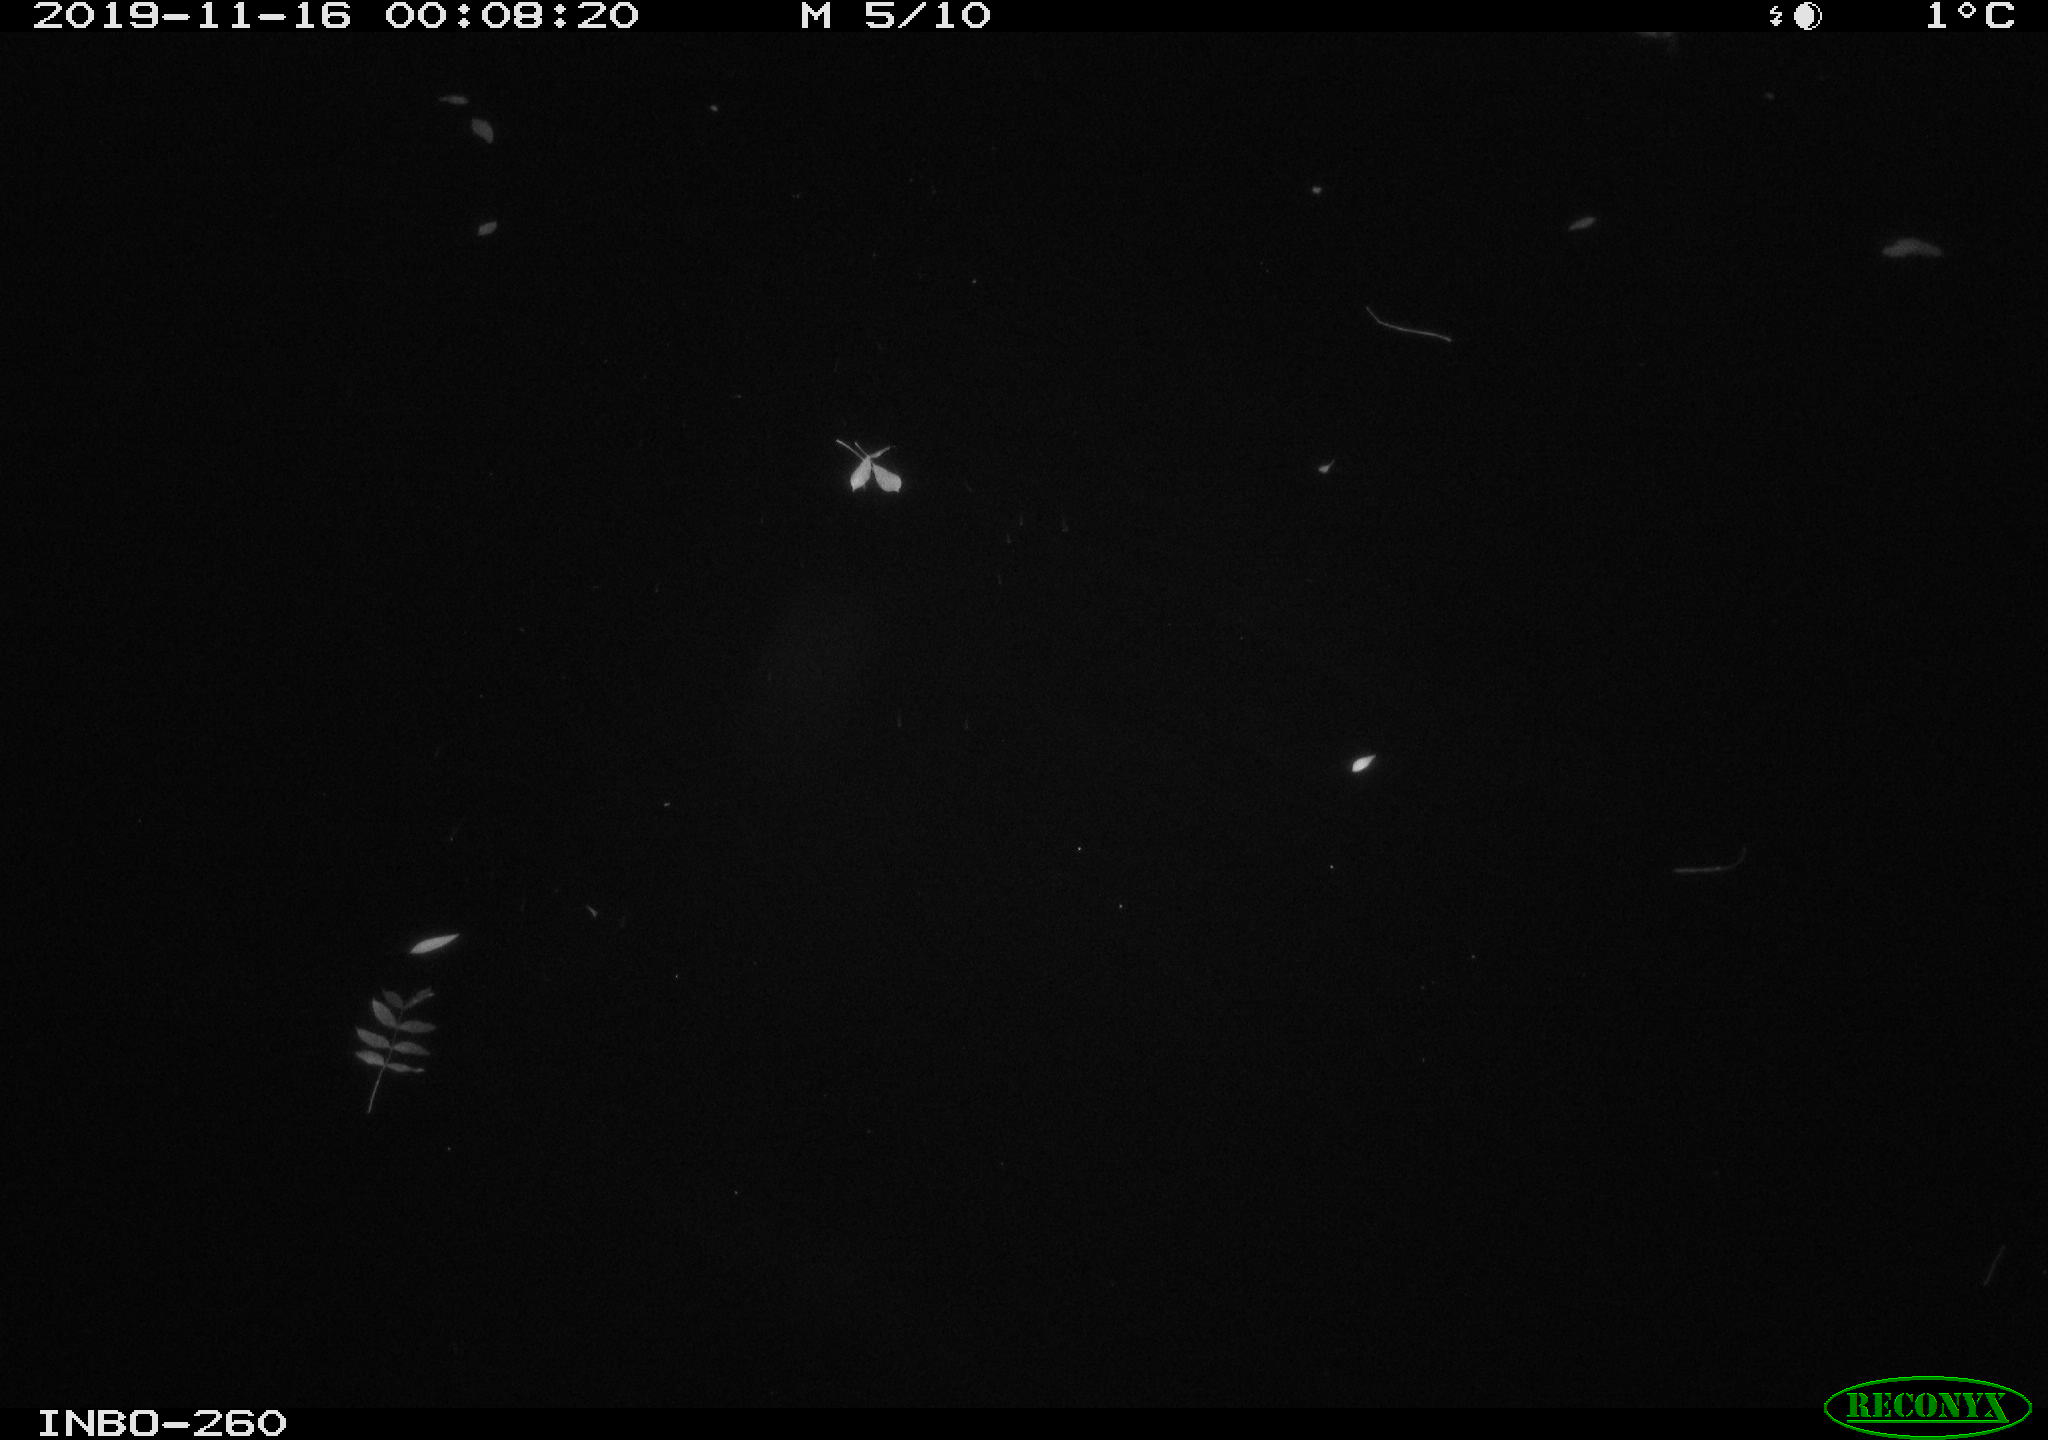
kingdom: Animalia
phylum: Chordata
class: Aves
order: Anseriformes
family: Anatidae
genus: Anas
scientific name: Anas platyrhynchos
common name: Mallard
